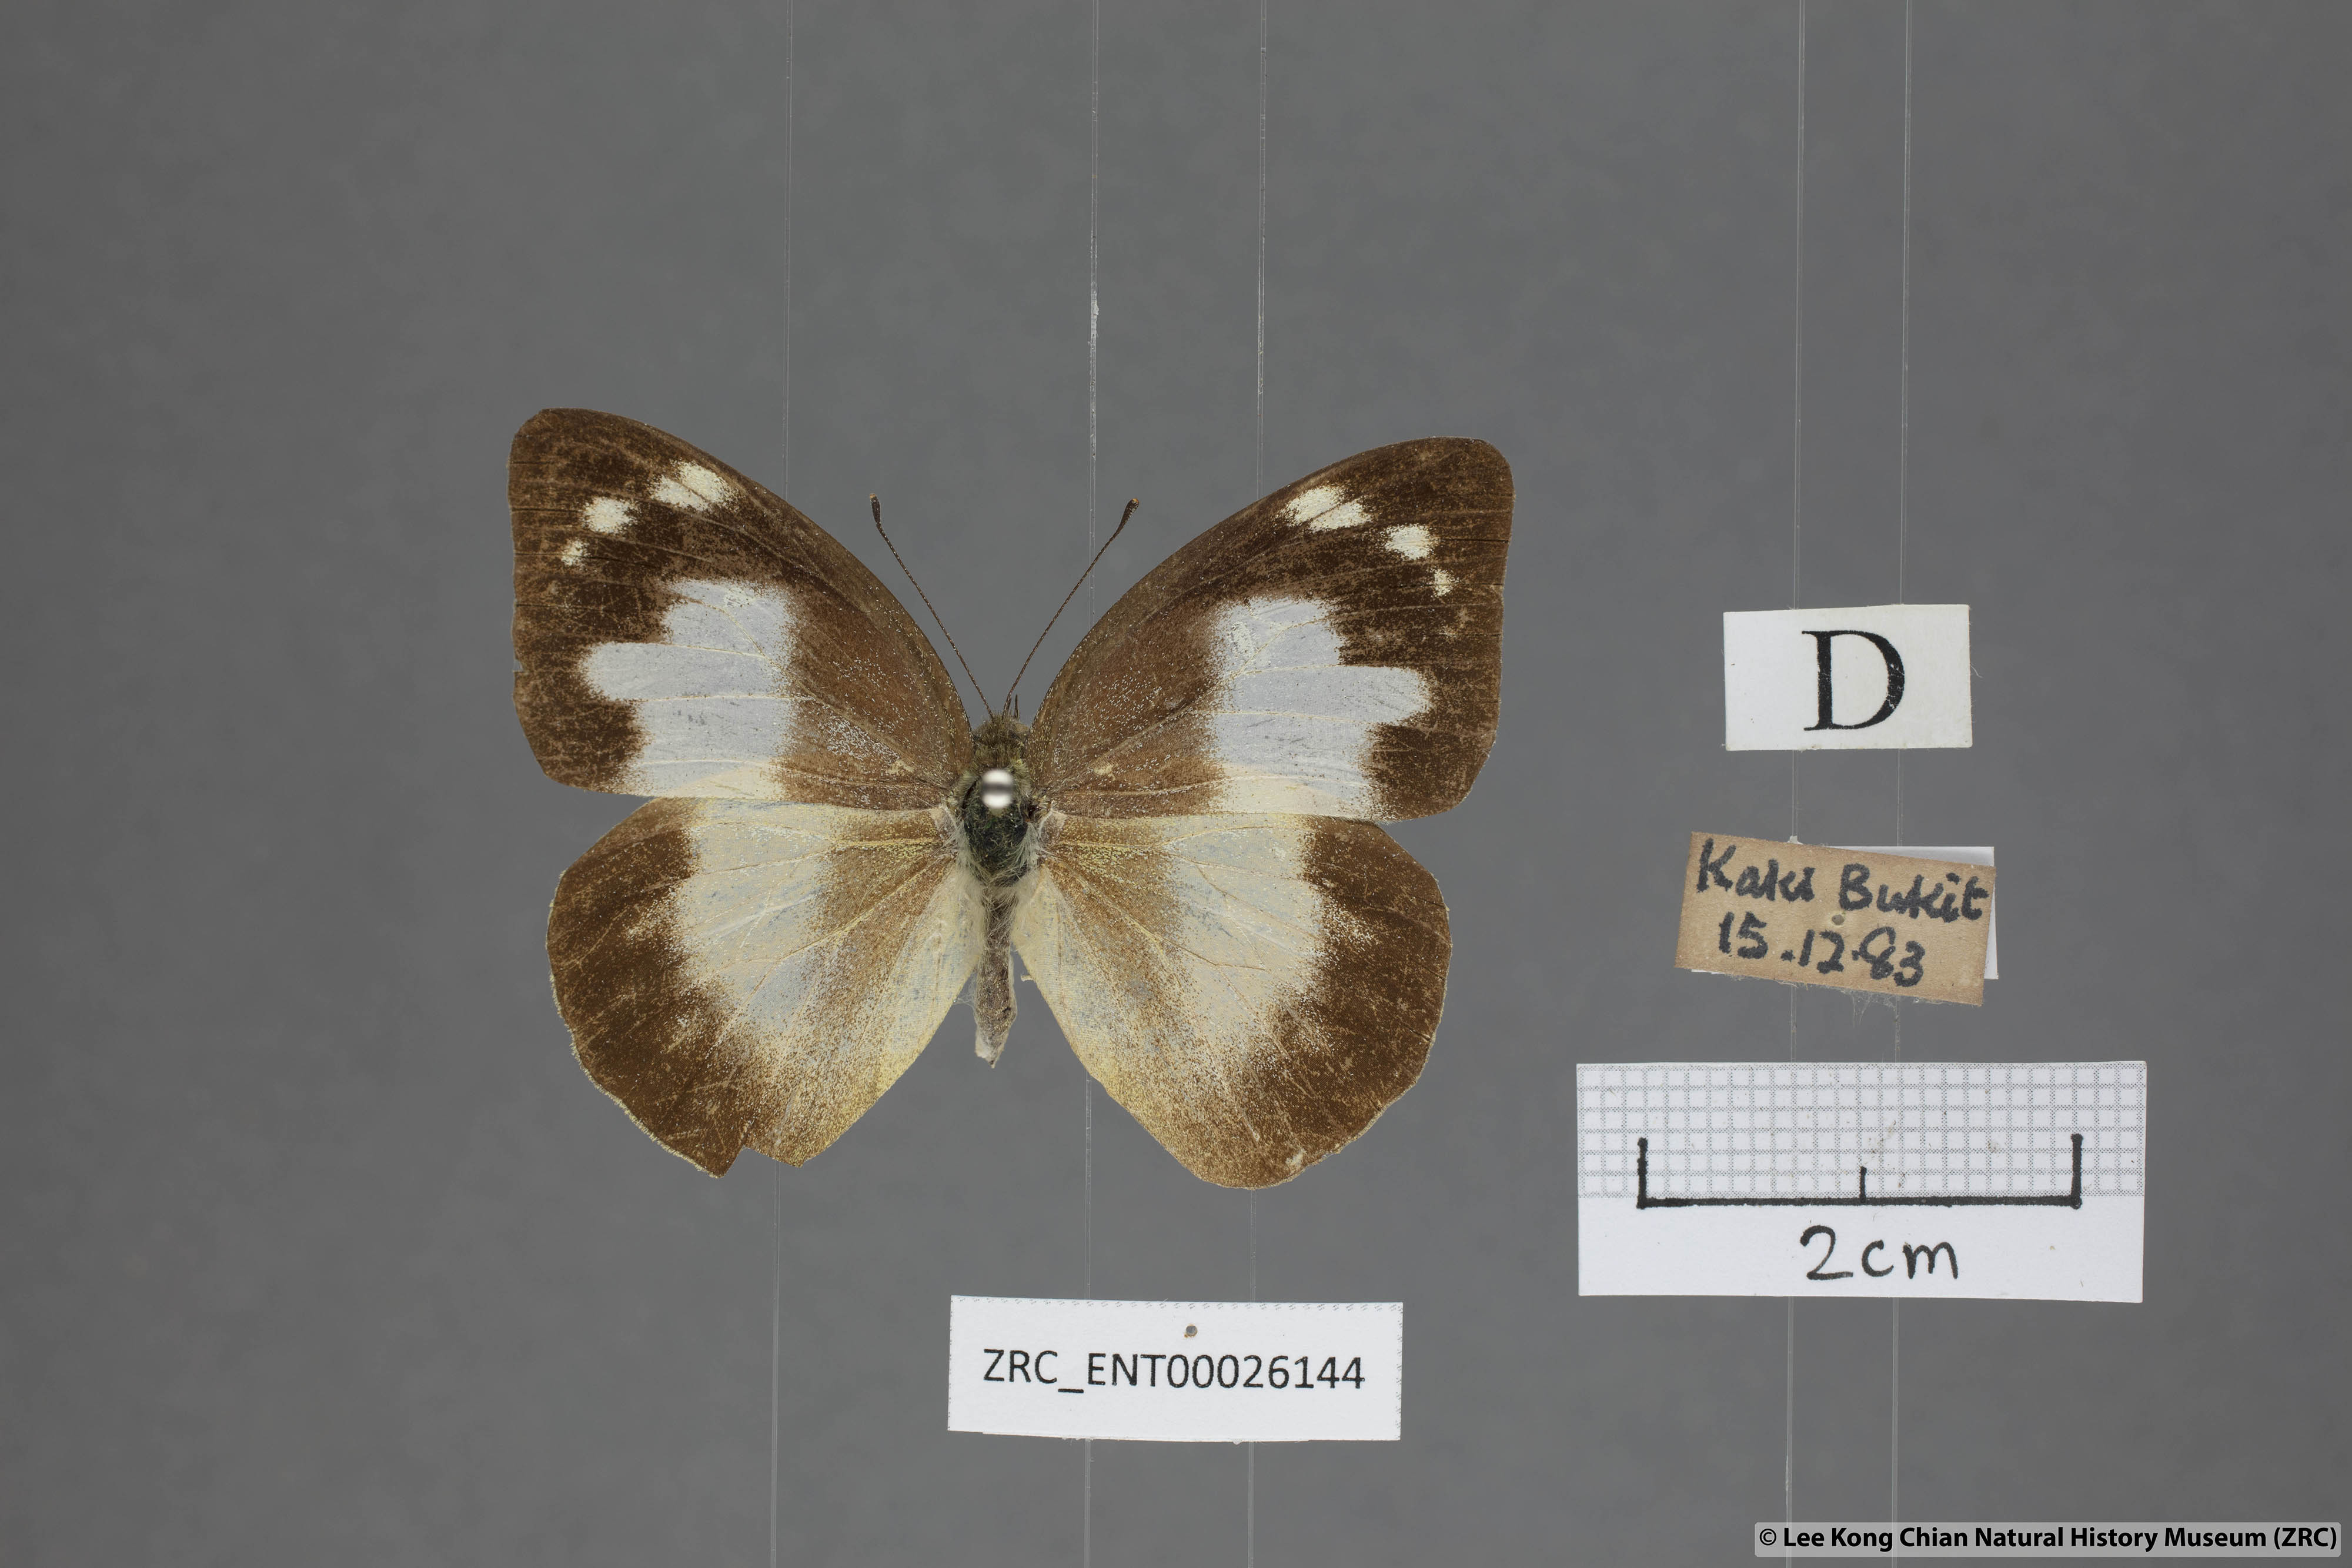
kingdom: Animalia
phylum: Arthropoda
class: Insecta
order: Lepidoptera
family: Pieridae
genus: Appias
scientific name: Appias paulina
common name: Ceylon lesser albatross
